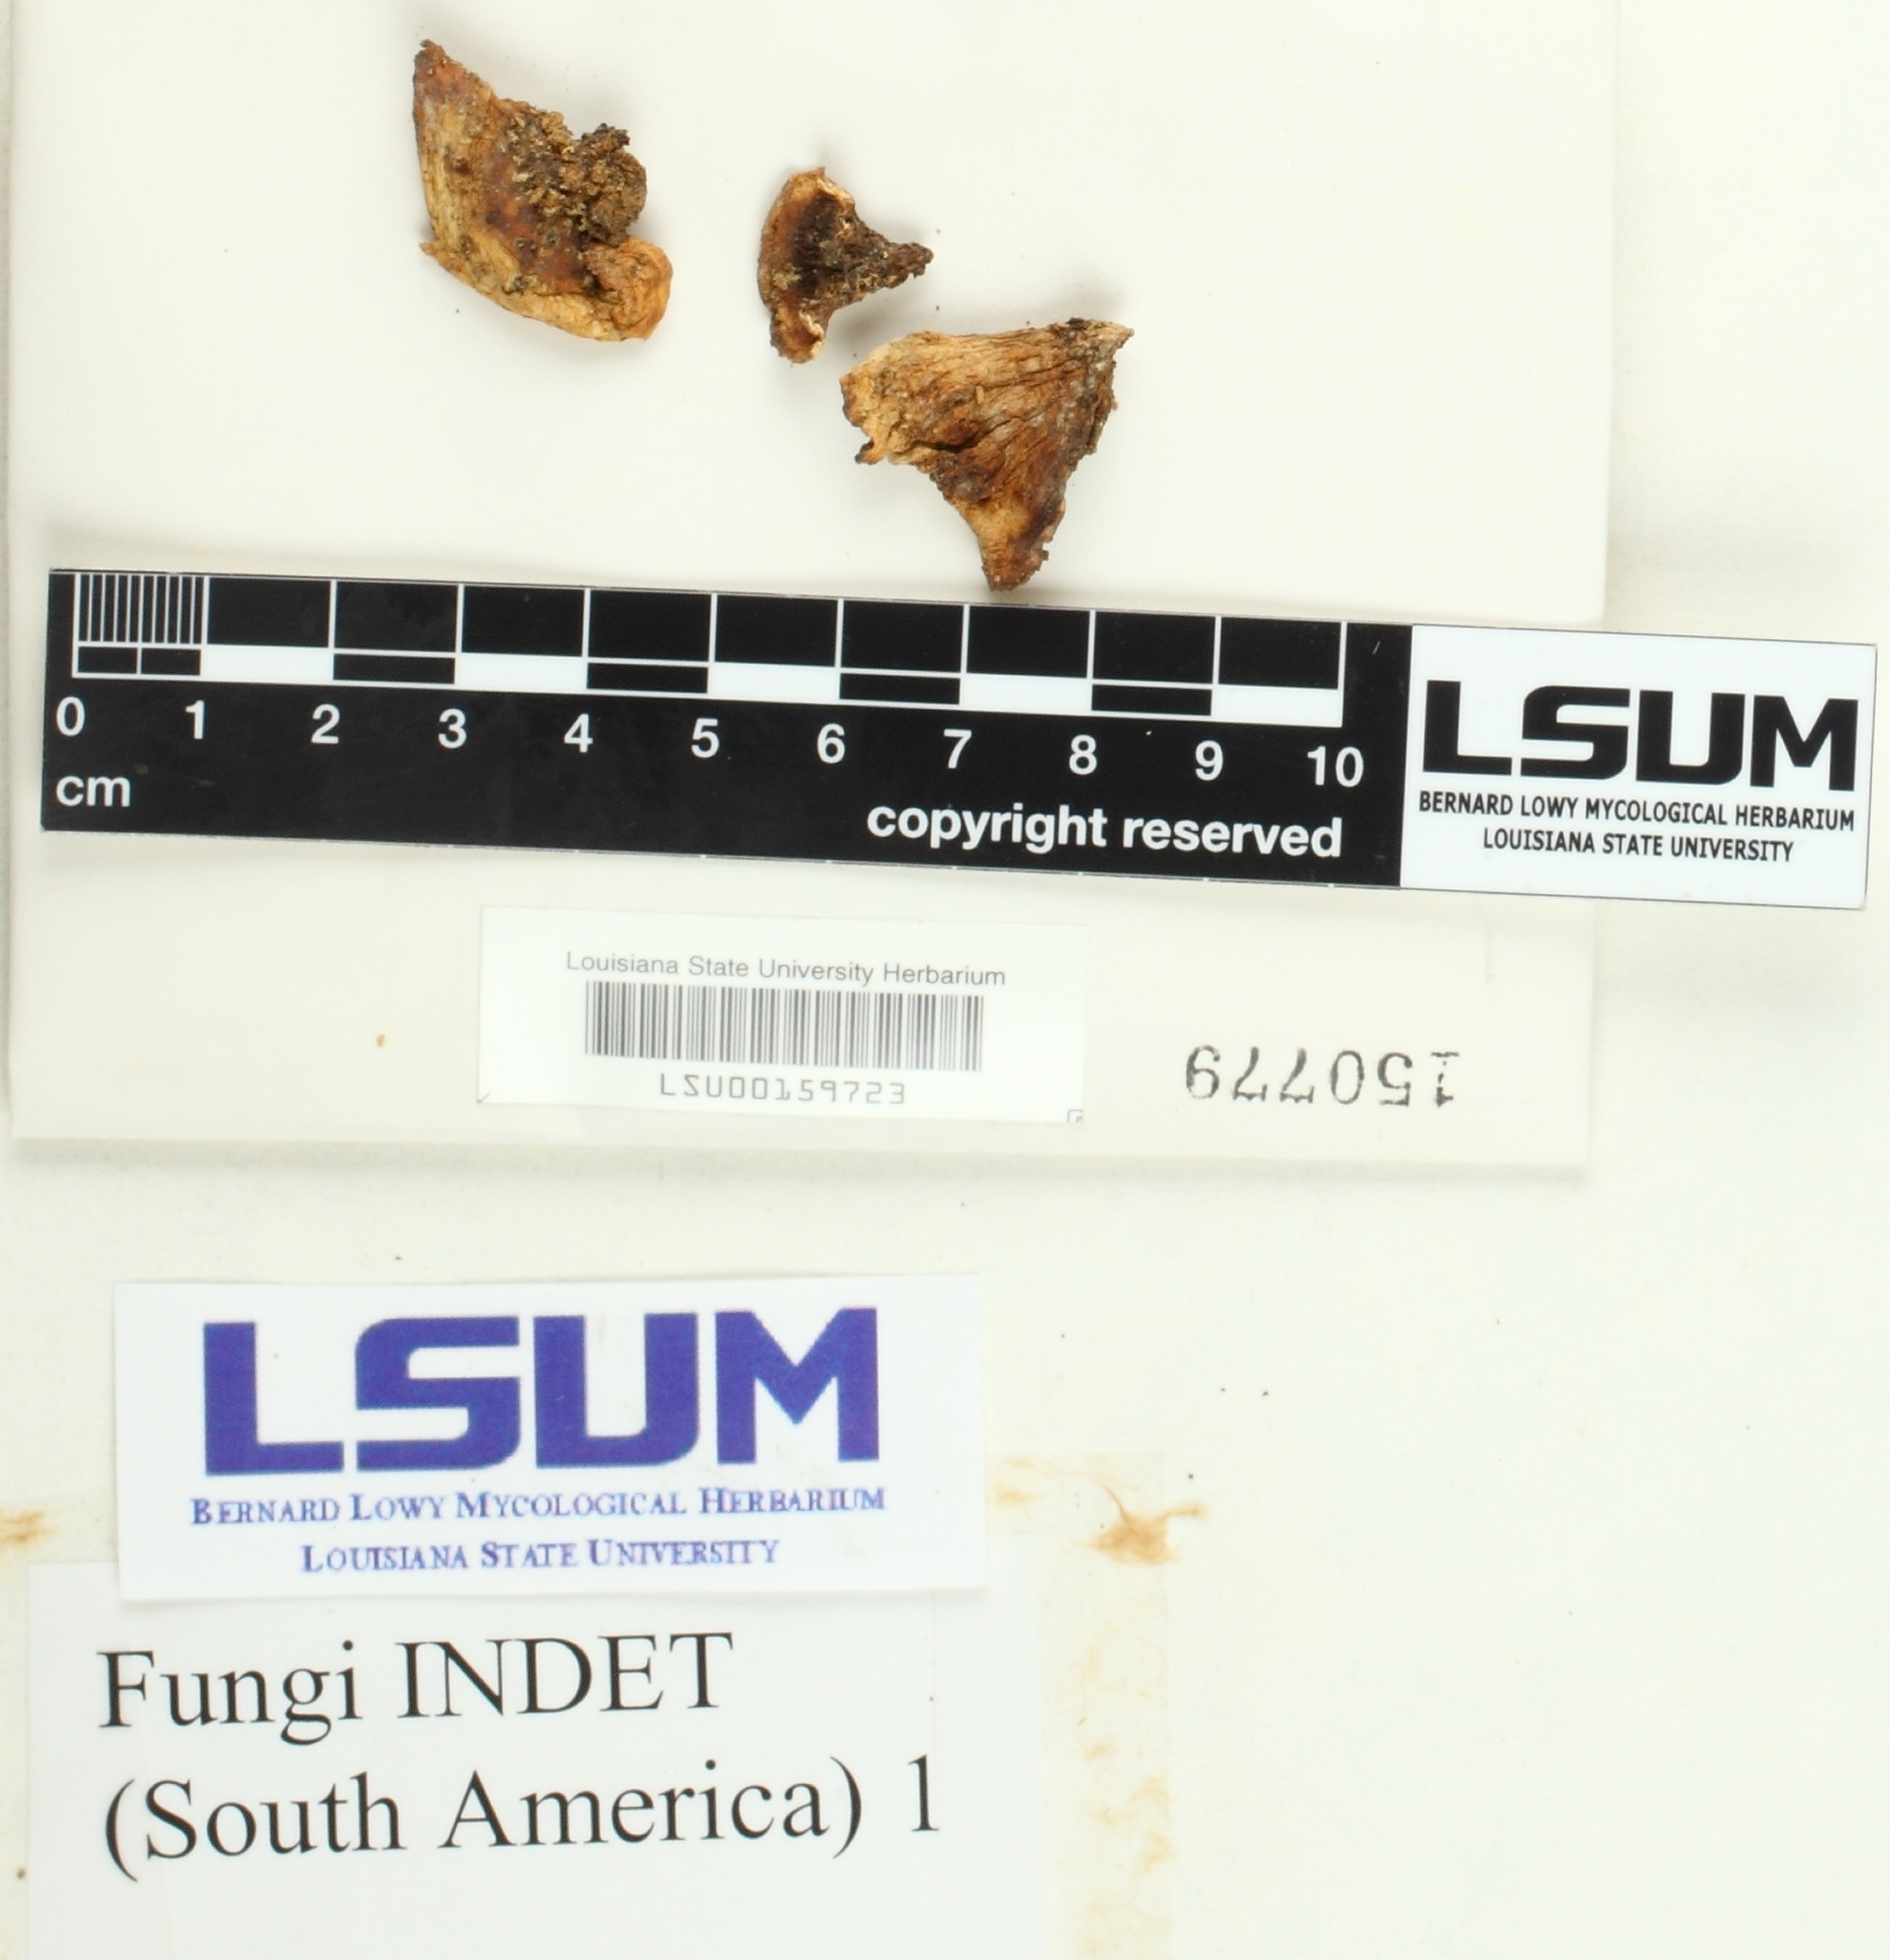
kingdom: Fungi
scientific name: Fungi
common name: Fungi
